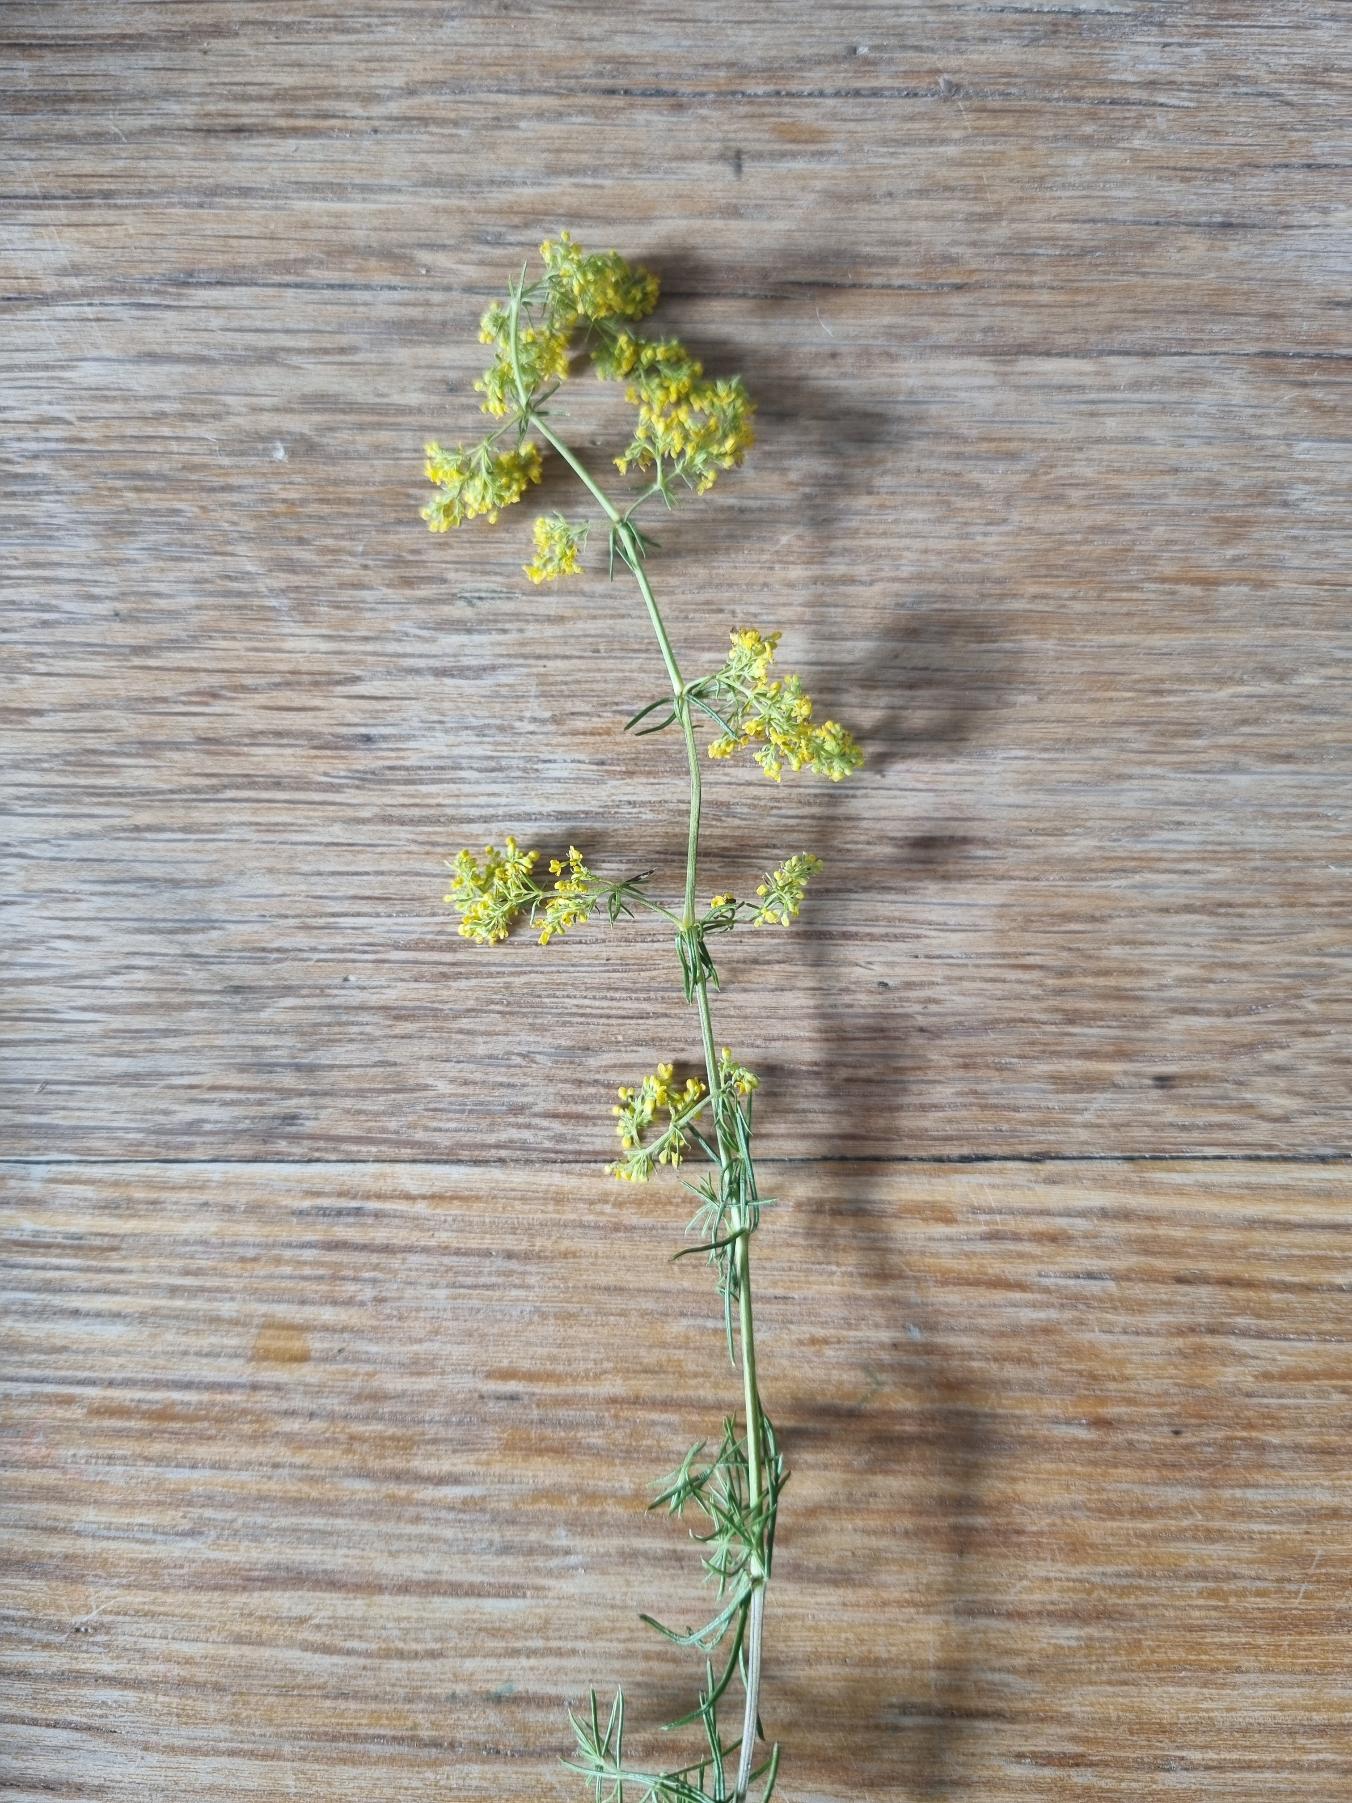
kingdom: Plantae
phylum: Tracheophyta
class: Magnoliopsida
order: Gentianales
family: Rubiaceae
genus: Galium
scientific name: Galium verum
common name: Gul snerre
